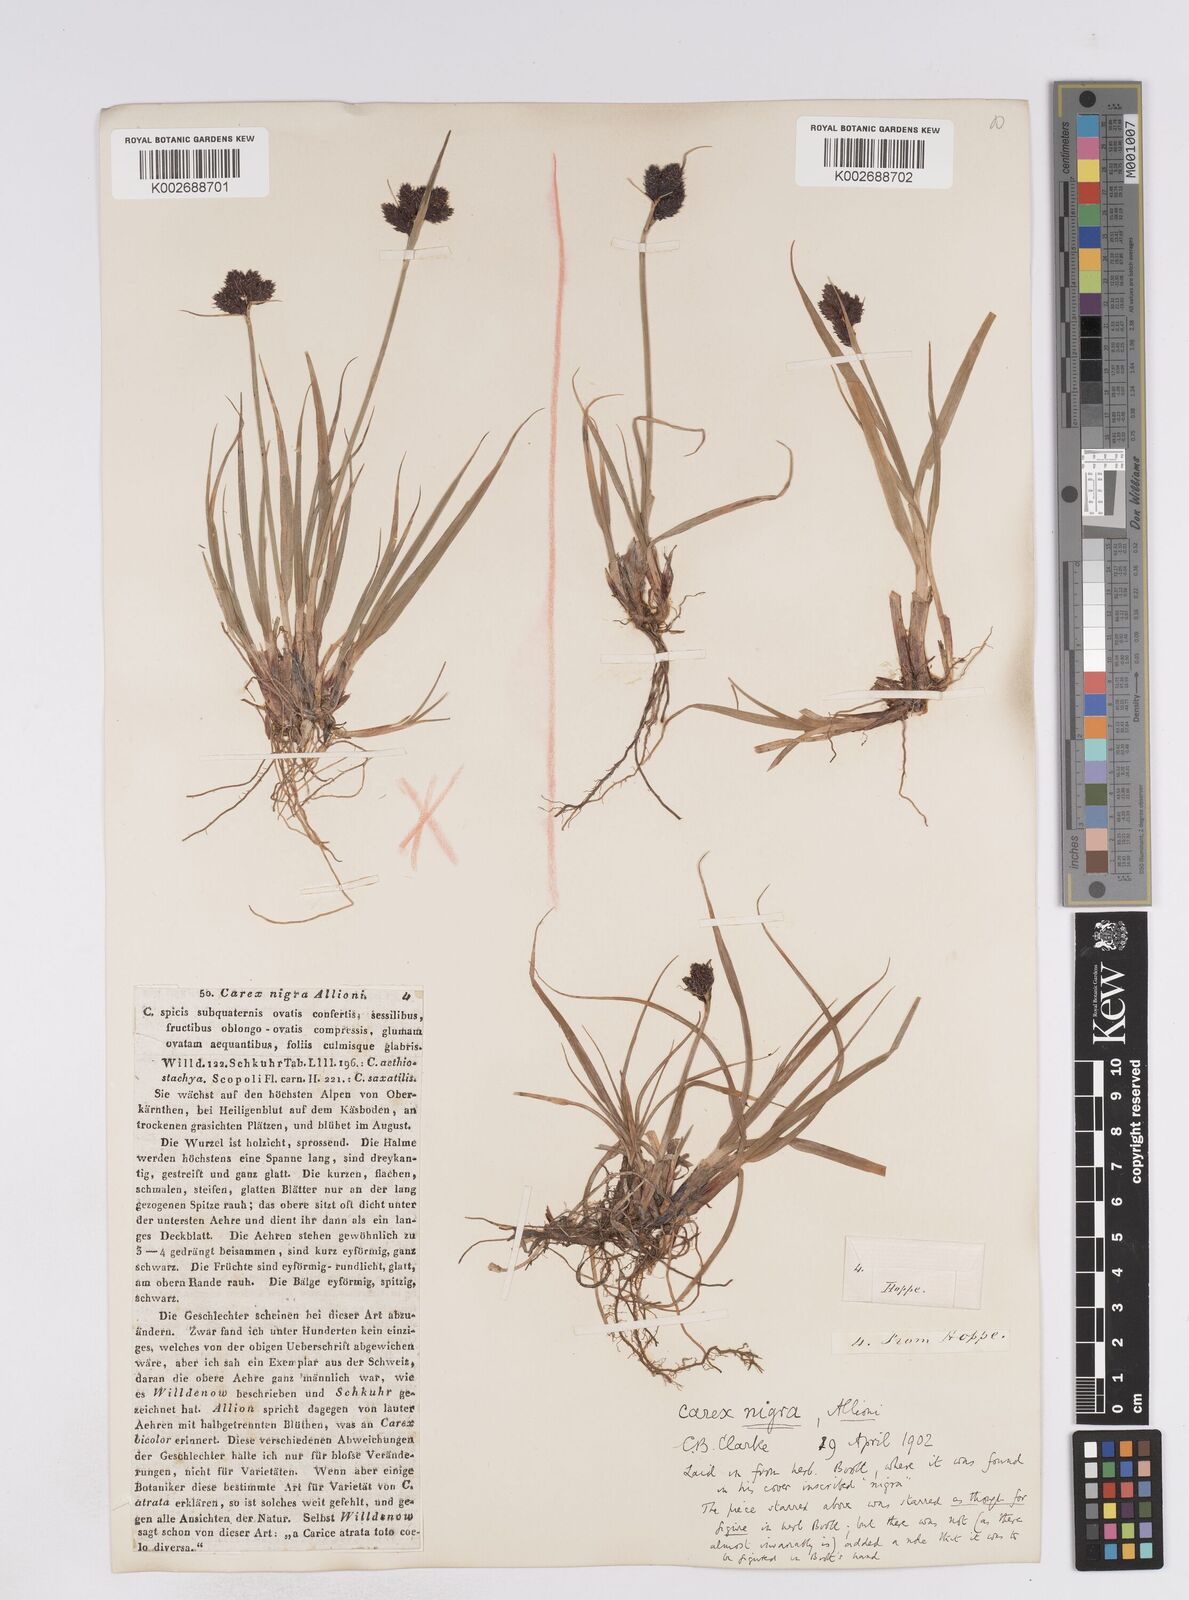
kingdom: Plantae
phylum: Tracheophyta
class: Liliopsida
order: Poales
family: Cyperaceae
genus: Carex
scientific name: Carex parviflora
